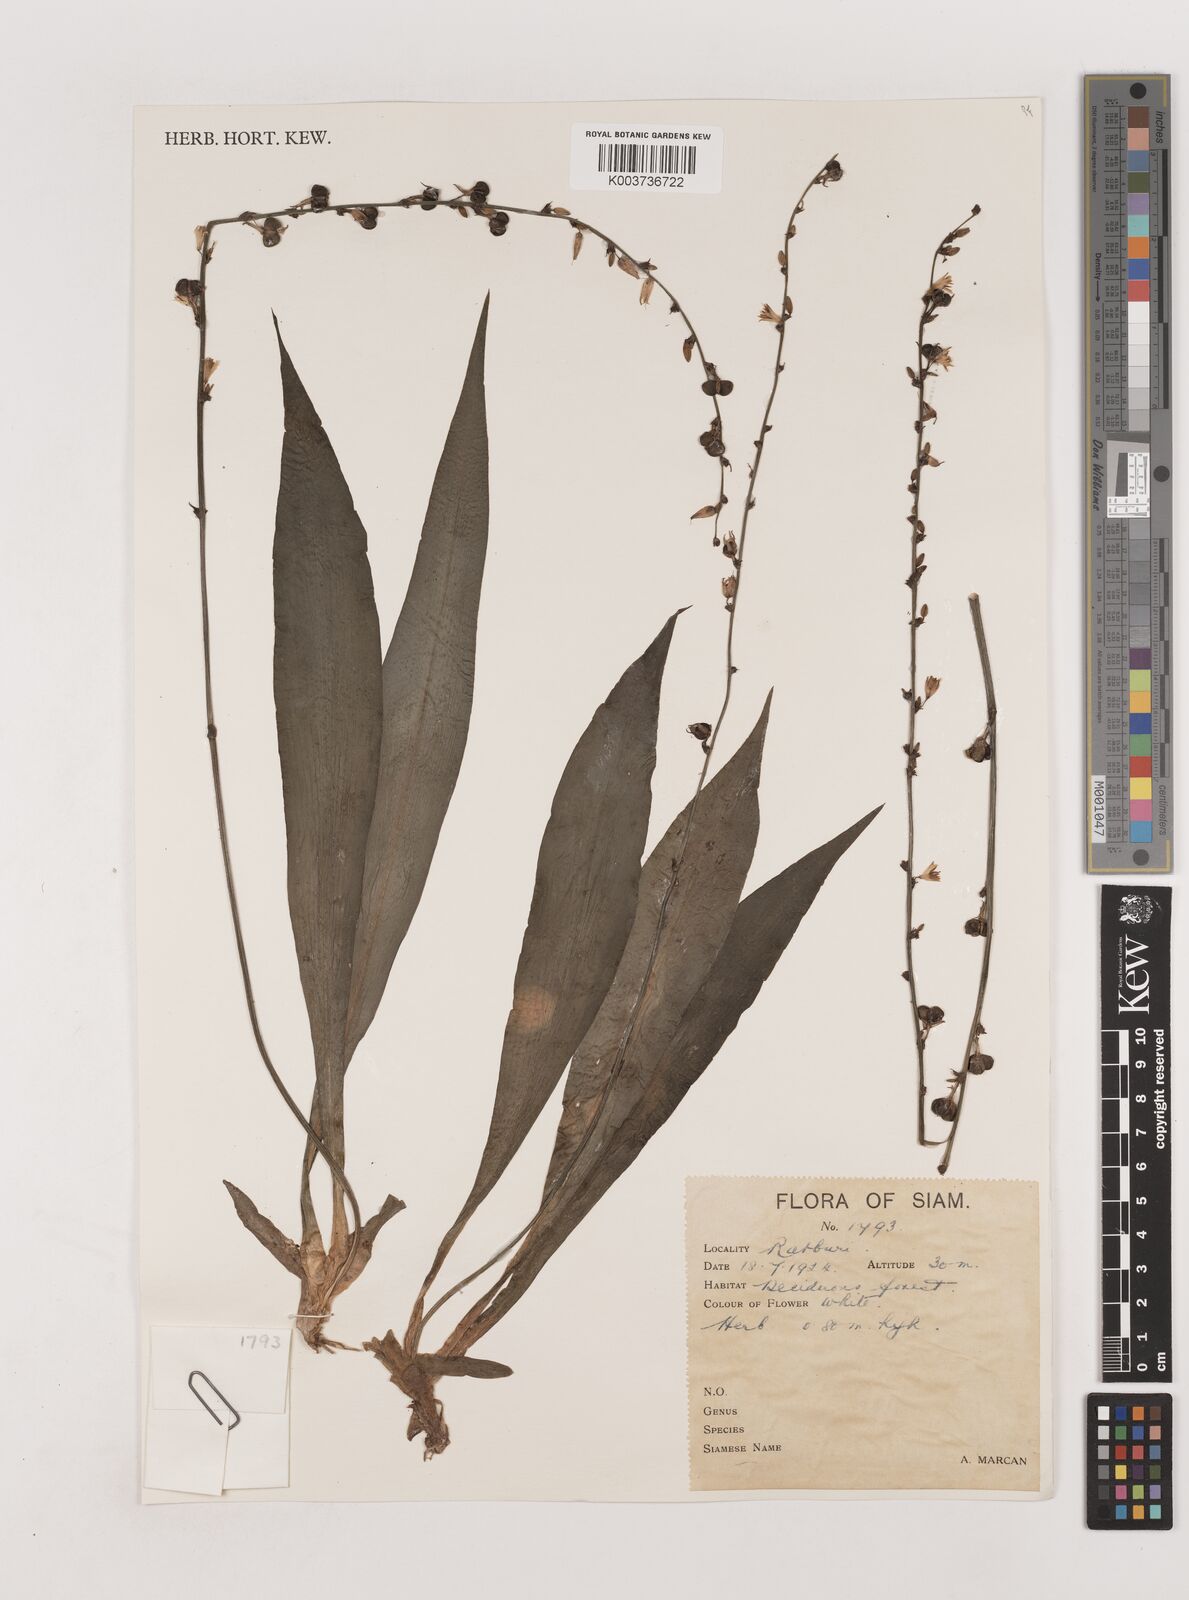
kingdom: Plantae
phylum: Tracheophyta
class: Liliopsida
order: Asparagales
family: Asparagaceae
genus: Chlorophytum
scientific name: Chlorophytum
